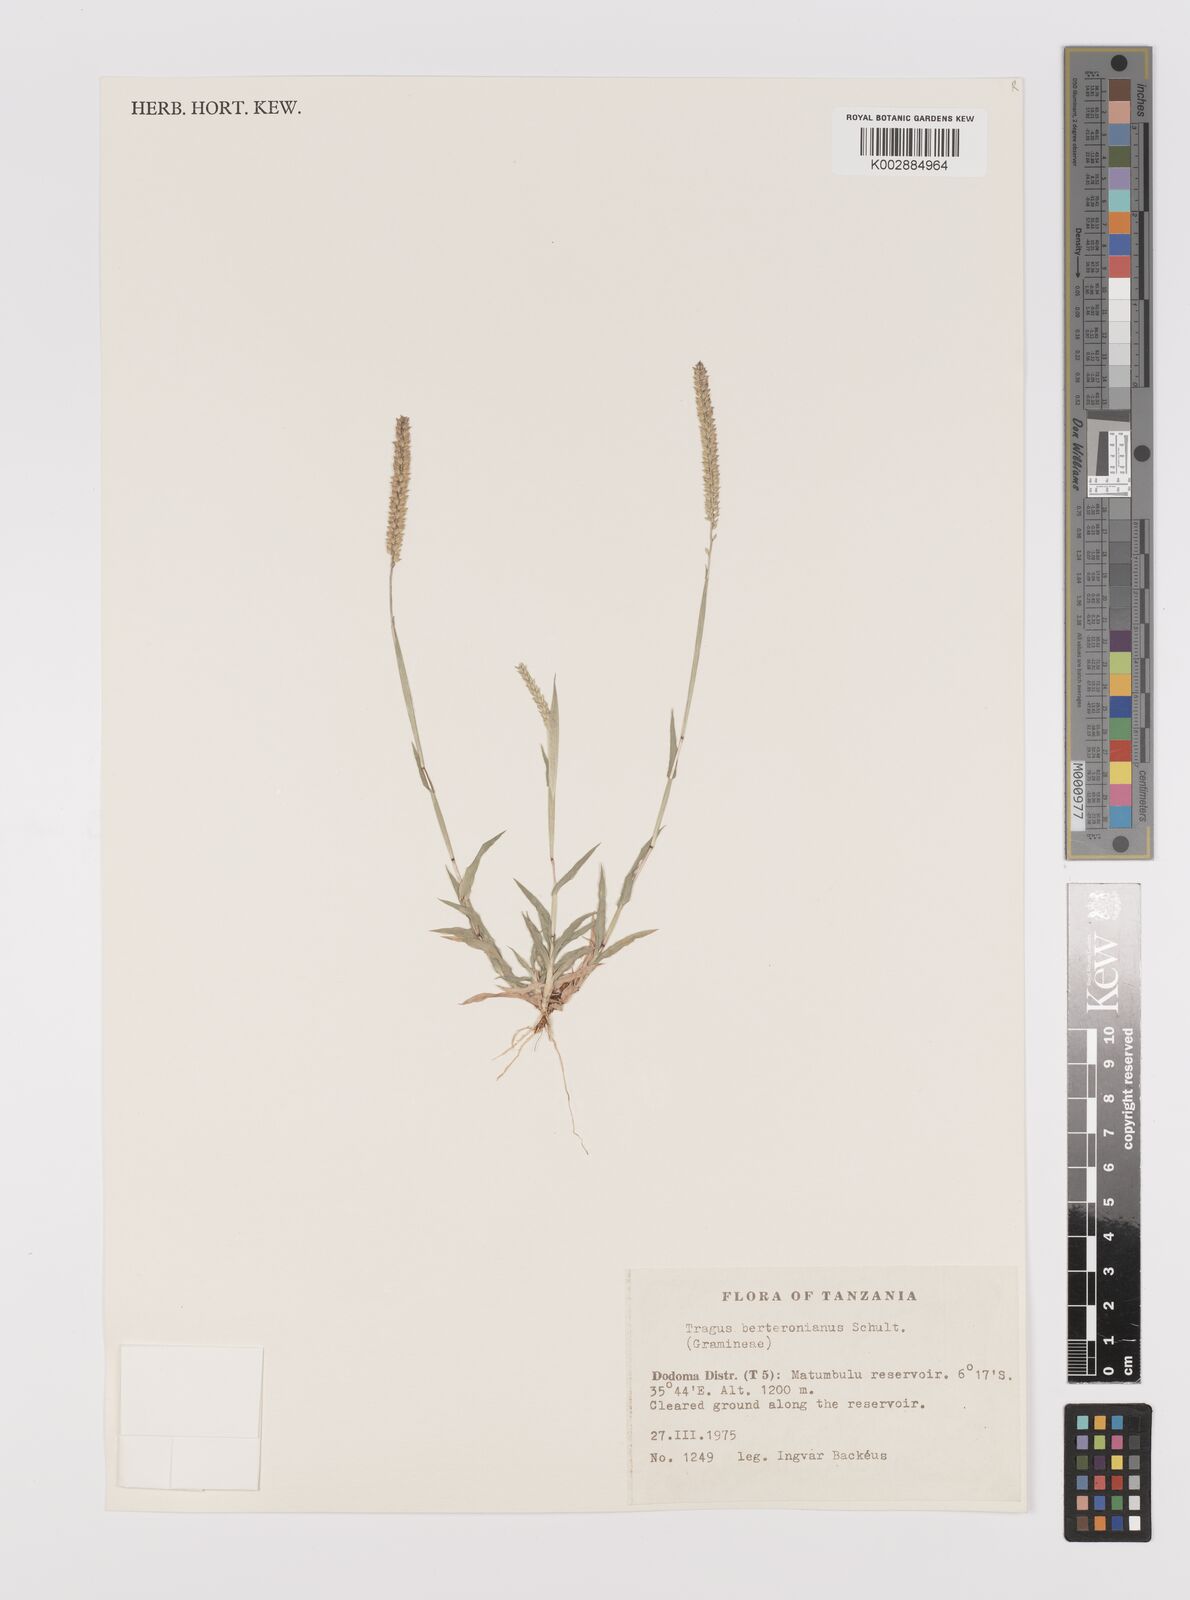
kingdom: Plantae
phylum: Tracheophyta
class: Liliopsida
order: Poales
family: Poaceae
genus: Tragus
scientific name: Tragus berteronianus
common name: African bur-grass
